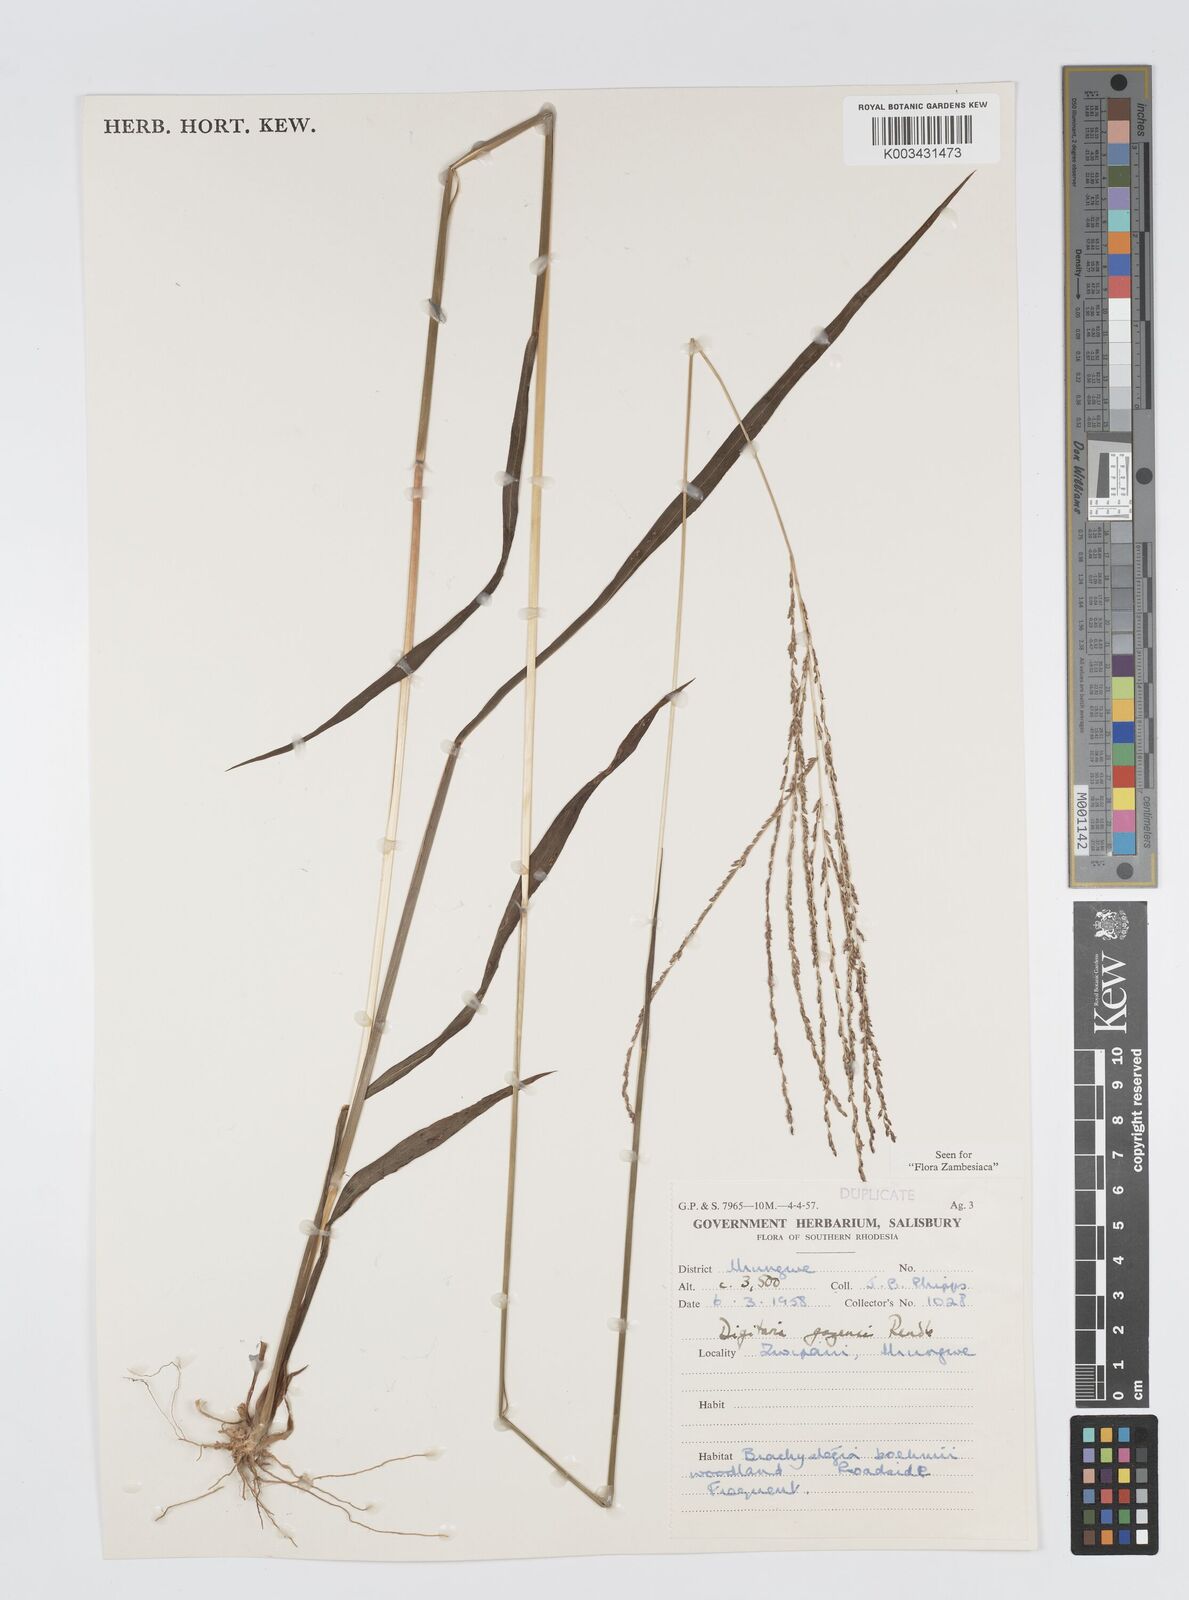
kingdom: Plantae
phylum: Tracheophyta
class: Liliopsida
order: Poales
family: Poaceae
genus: Digitaria
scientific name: Digitaria gazensis
